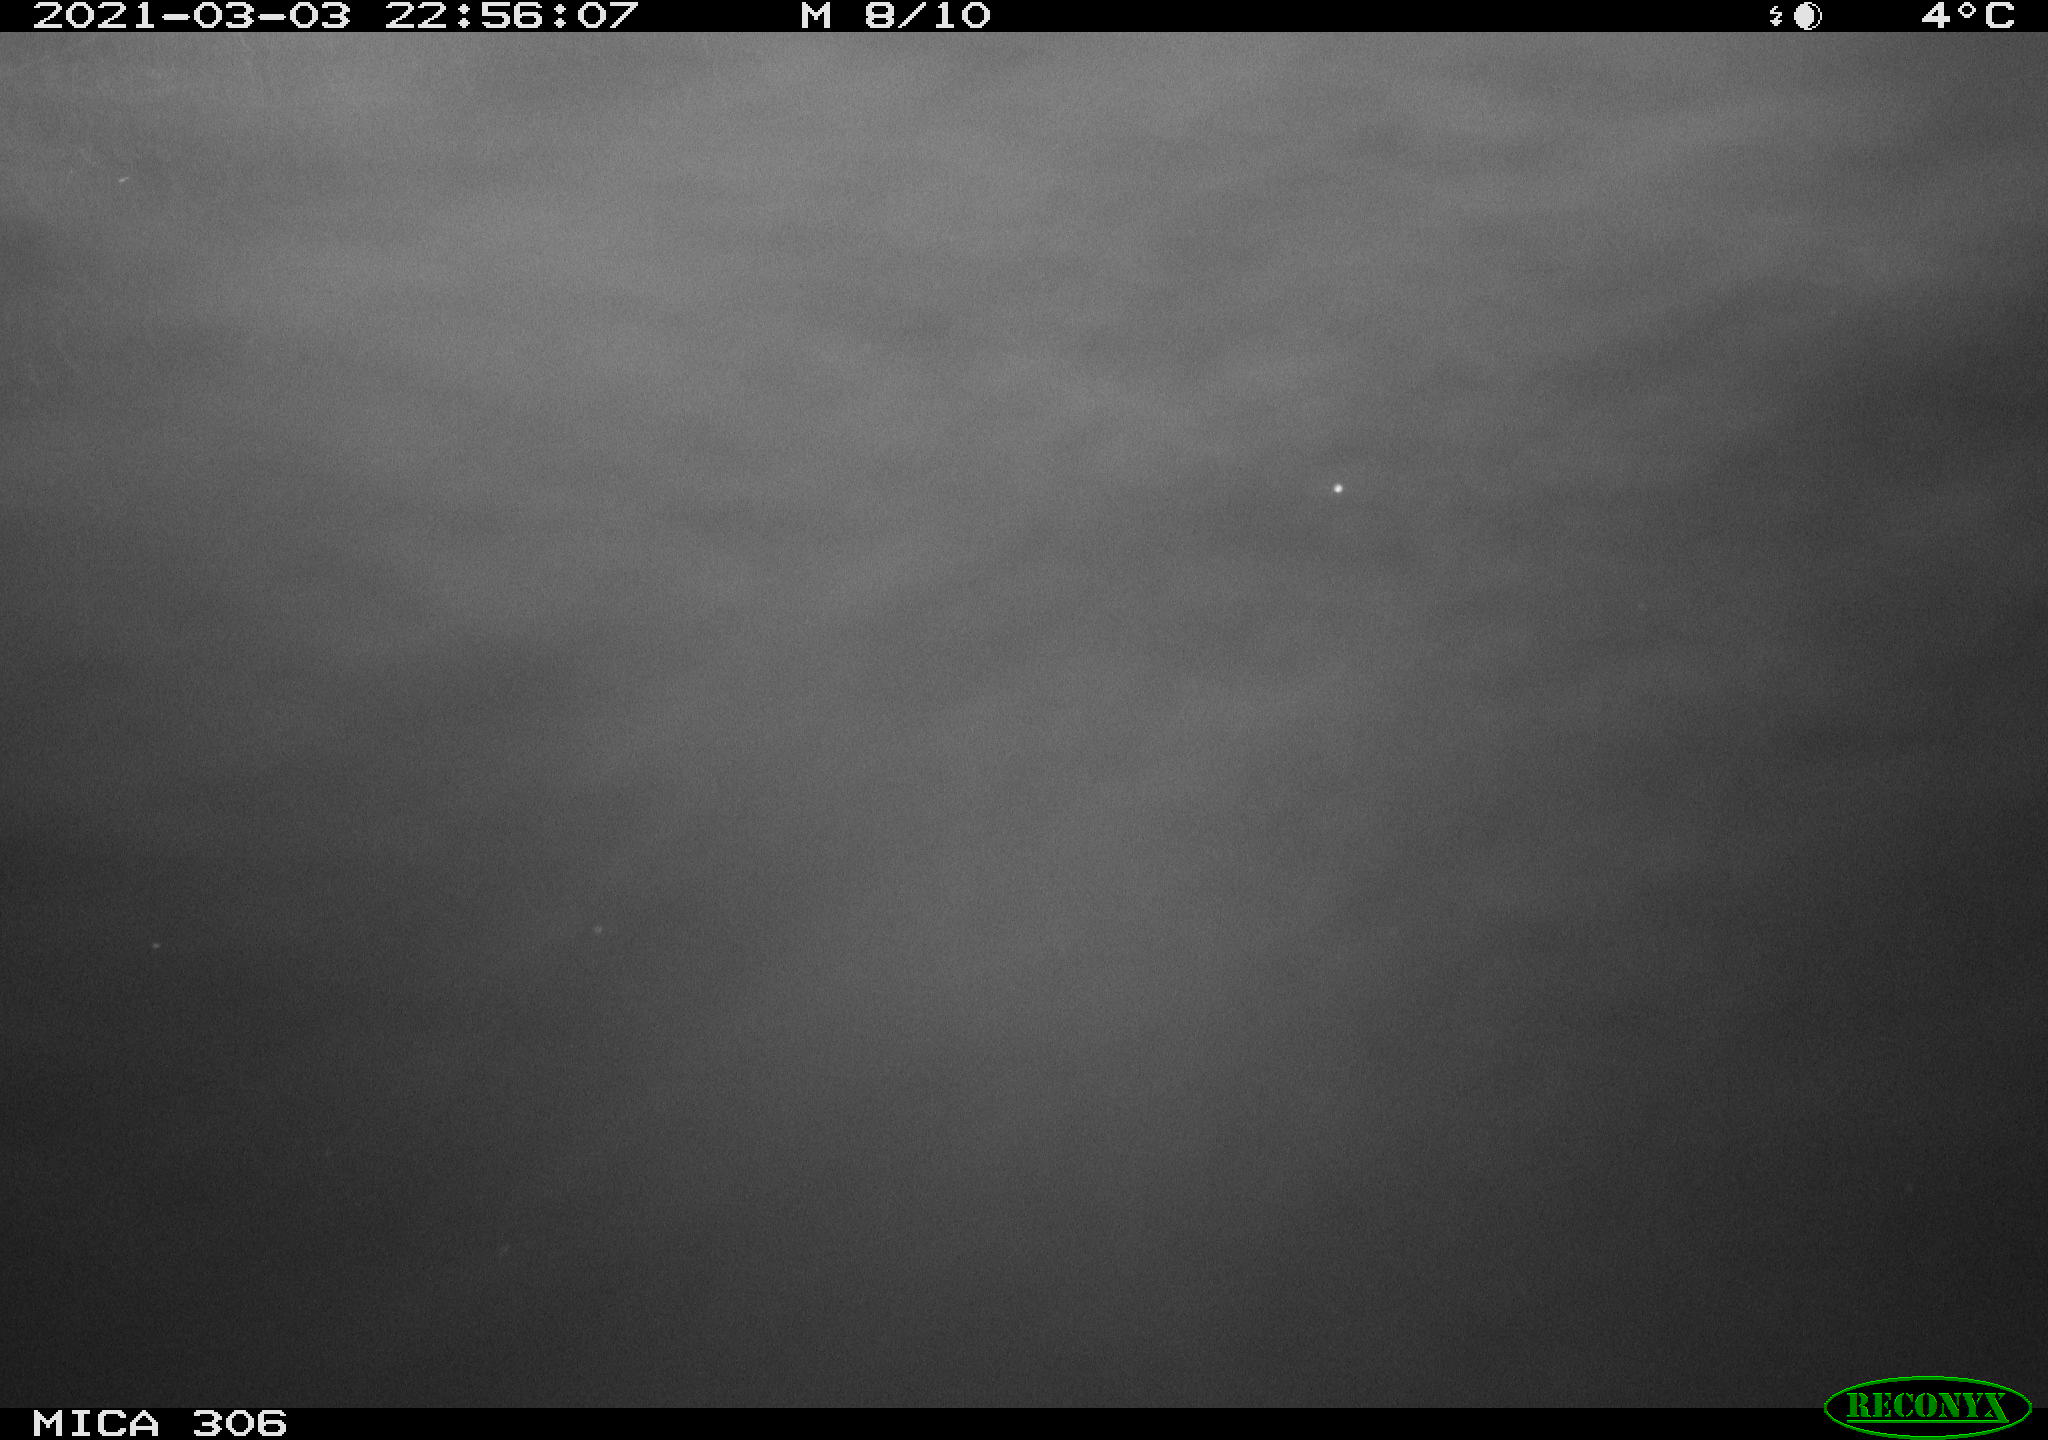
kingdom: Animalia
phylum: Chordata
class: Mammalia
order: Rodentia
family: Cricetidae
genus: Ondatra
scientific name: Ondatra zibethicus
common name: Muskrat
